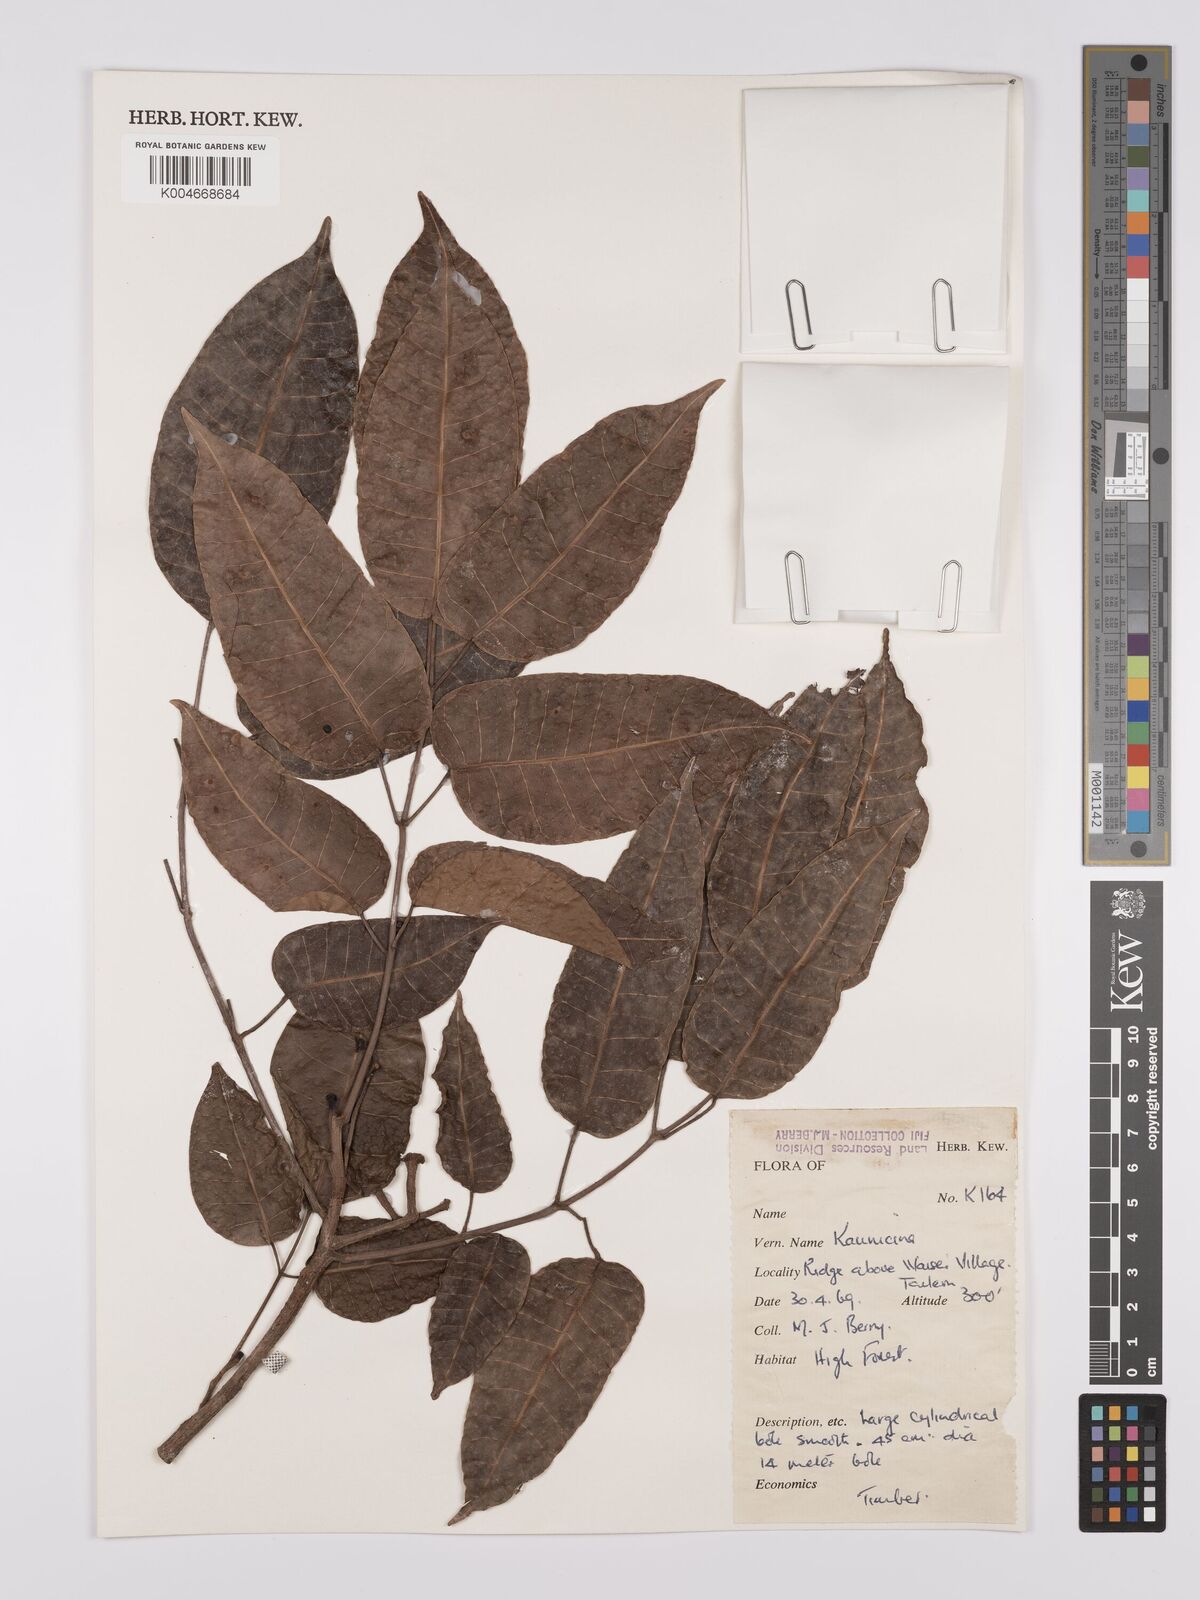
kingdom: Plantae
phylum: Tracheophyta
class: Magnoliopsida
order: Sapindales
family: Burseraceae
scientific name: Burseraceae
